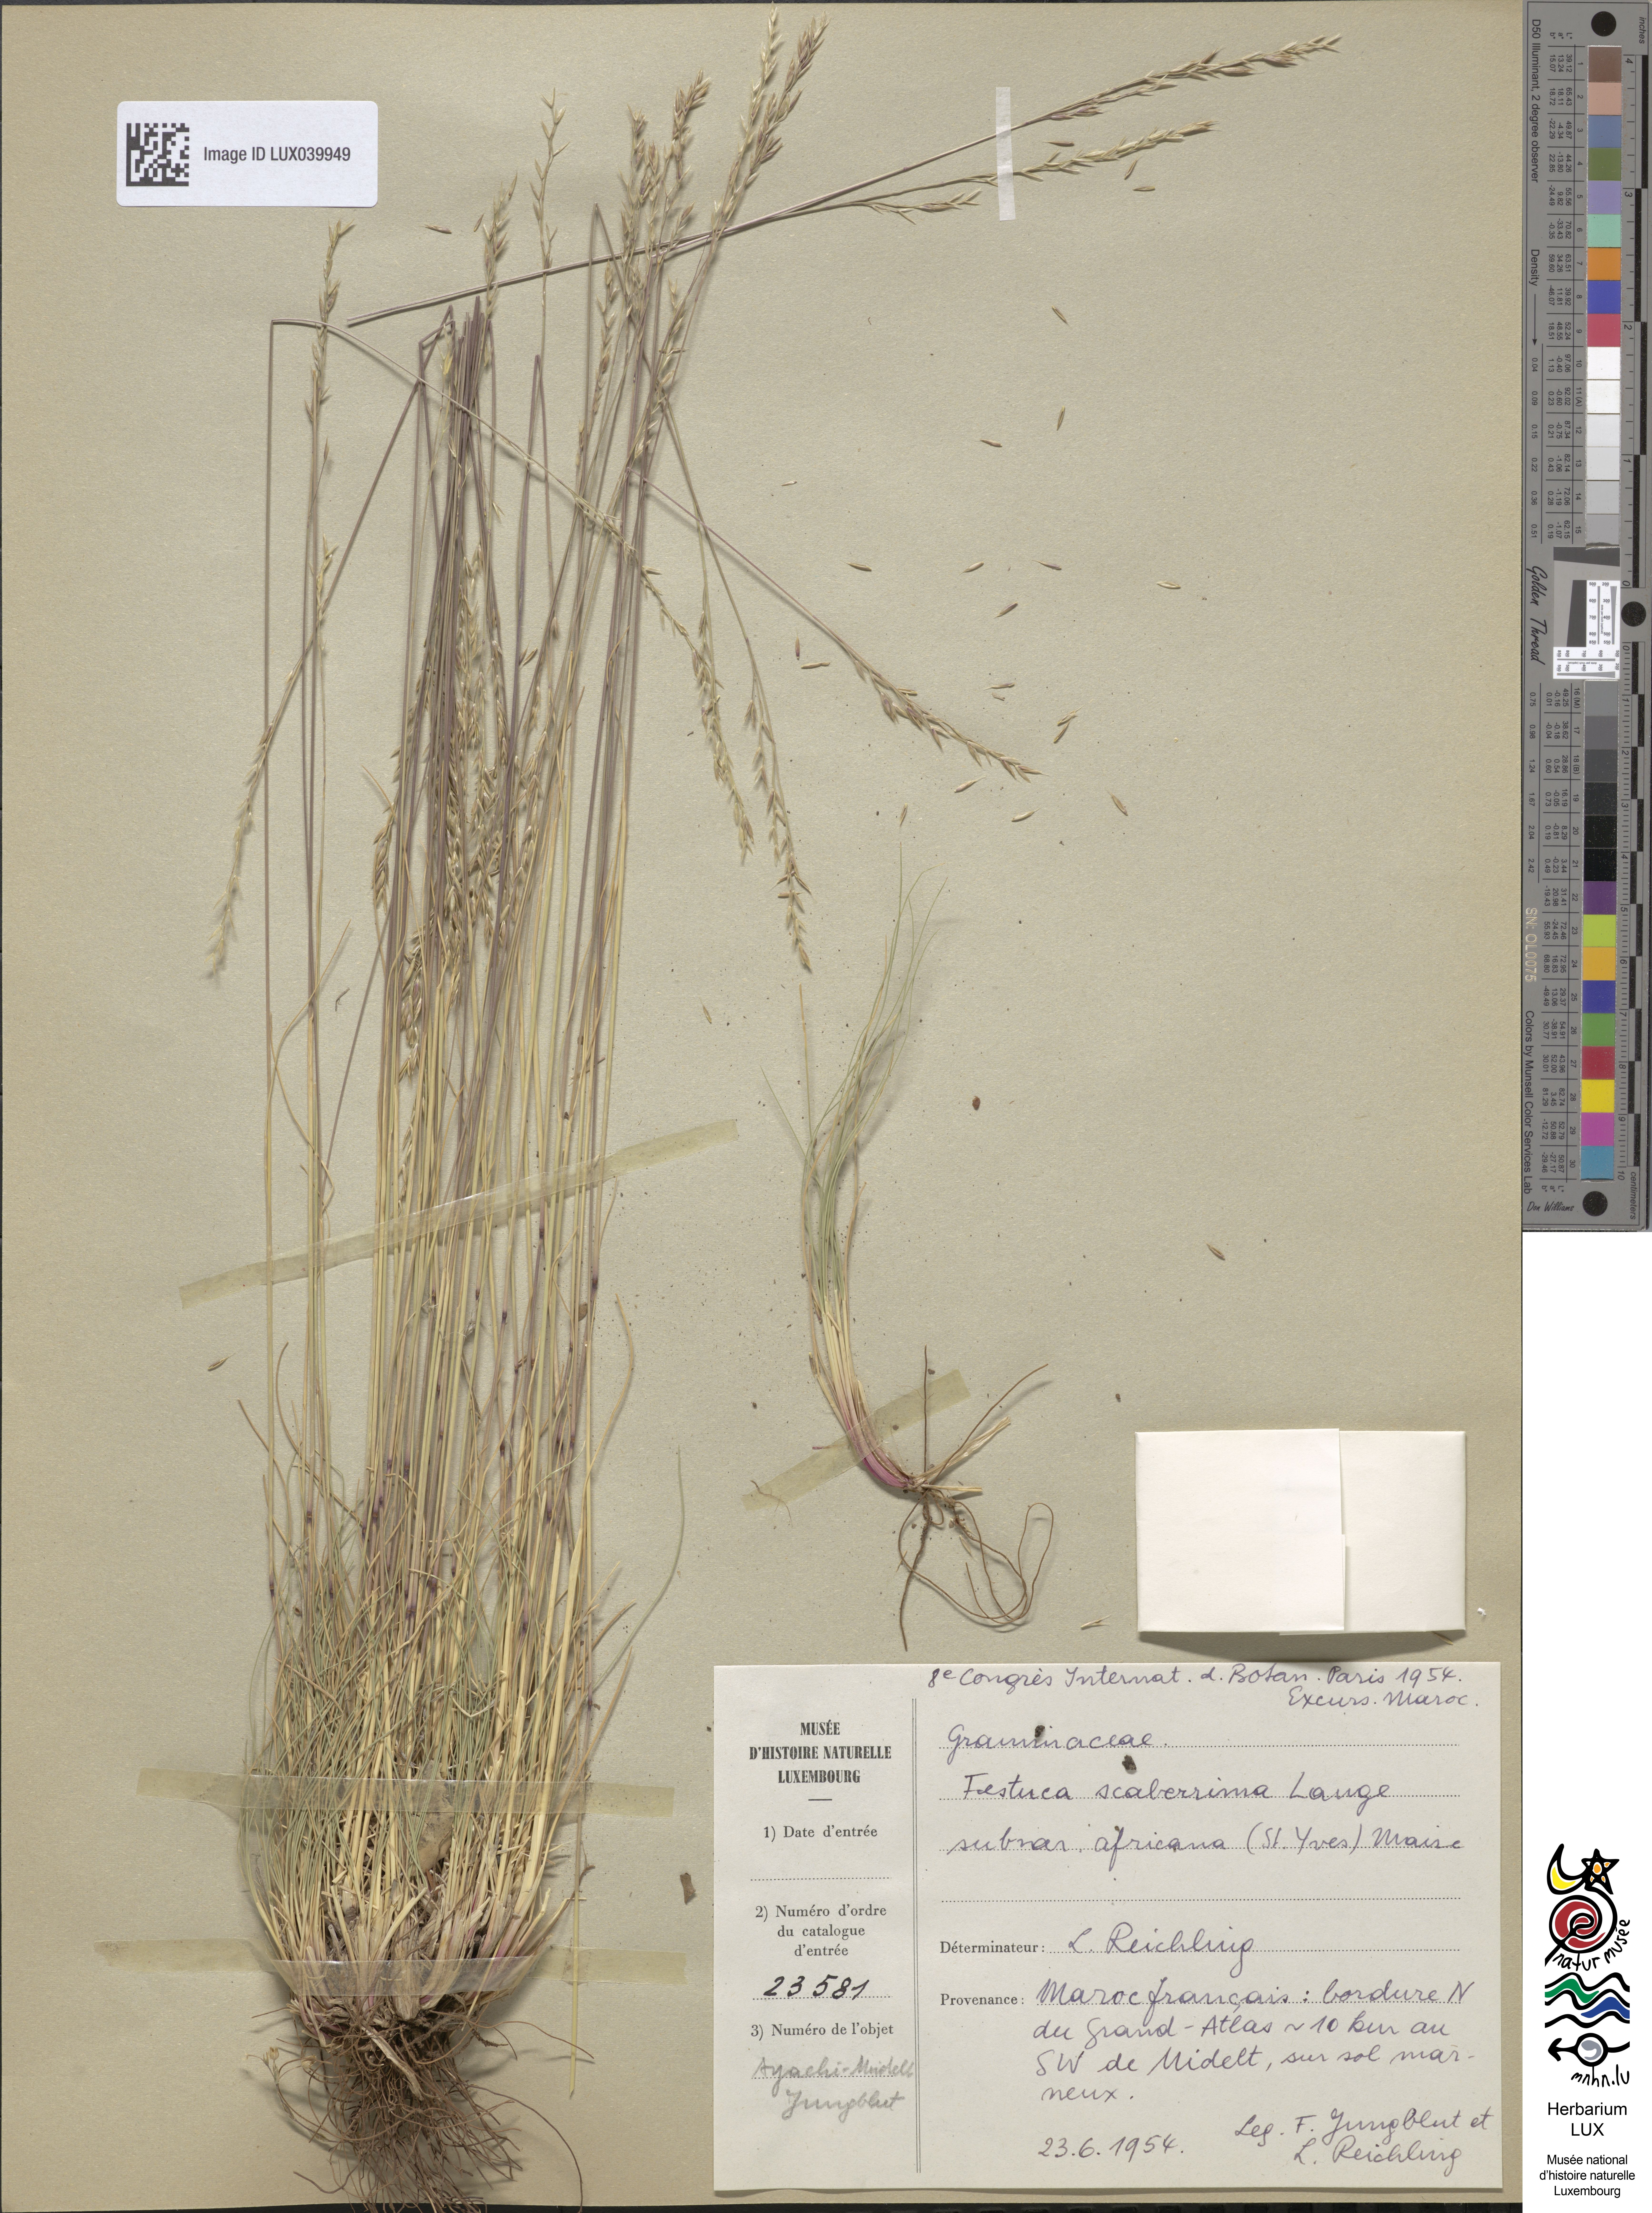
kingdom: Plantae
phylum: Tracheophyta
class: Liliopsida
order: Poales
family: Poaceae
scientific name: Poaceae
